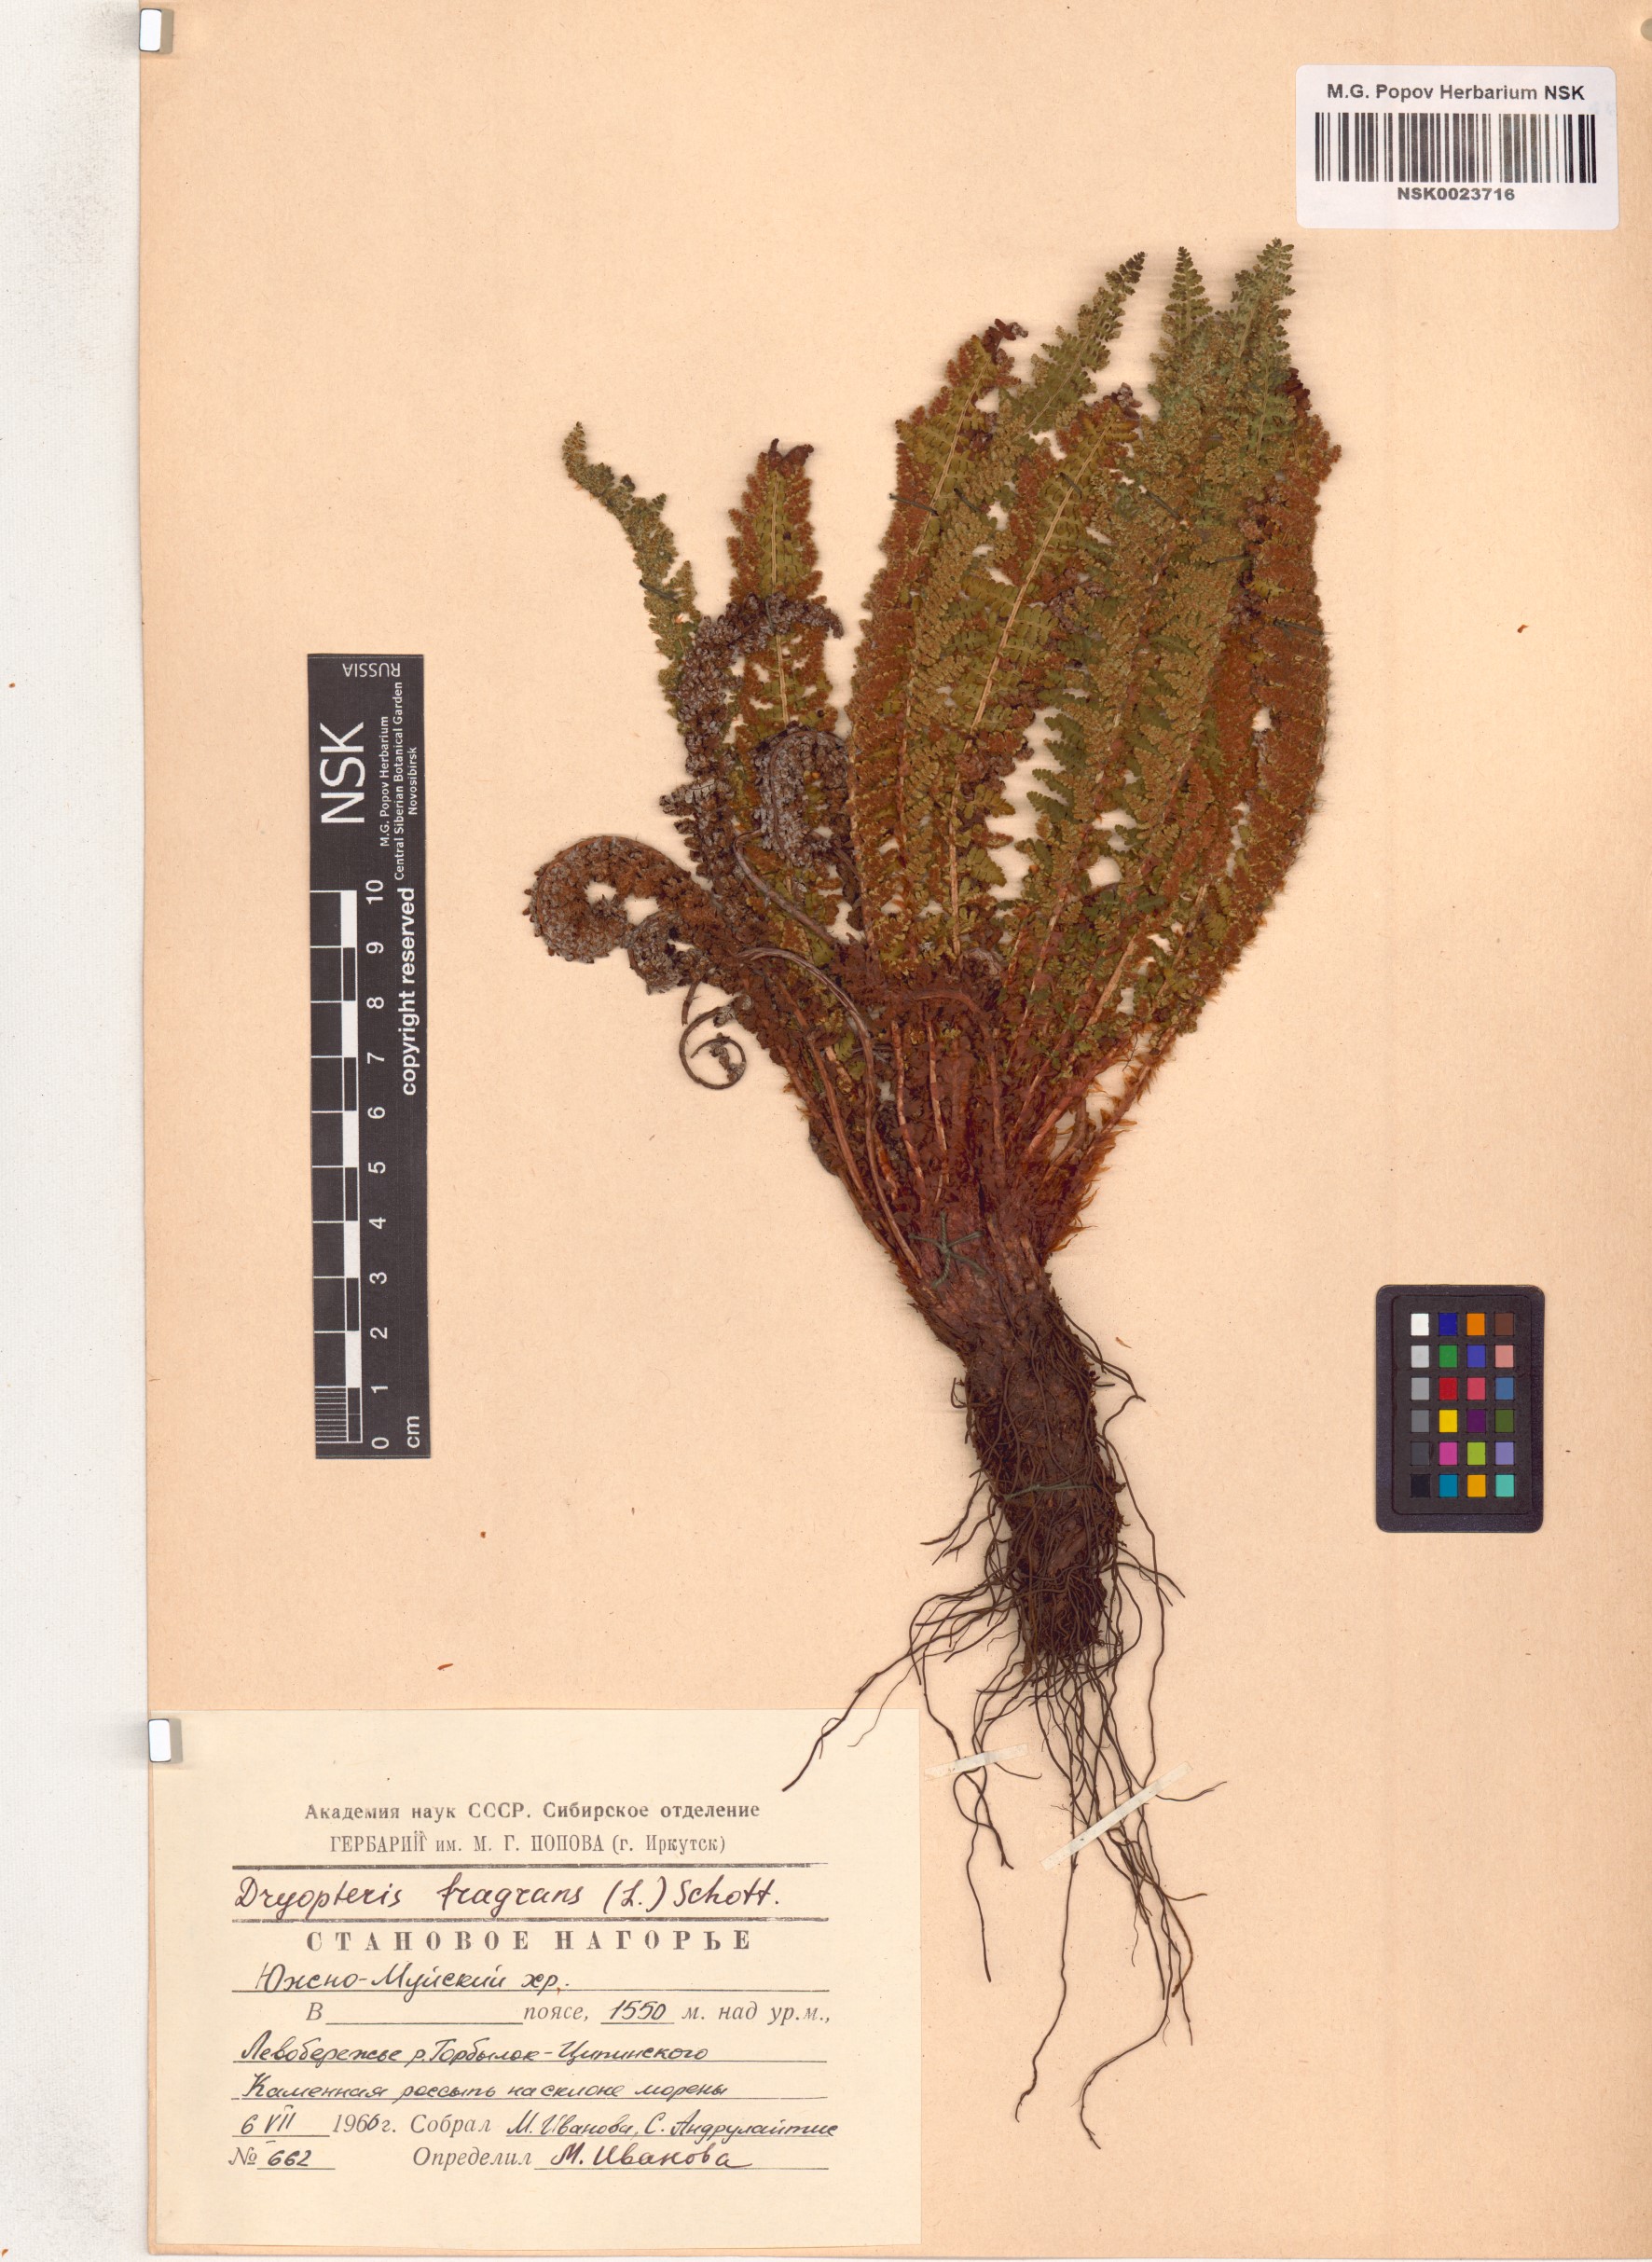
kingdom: Plantae
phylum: Tracheophyta
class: Polypodiopsida
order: Polypodiales
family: Dryopteridaceae
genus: Dryopteris
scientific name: Dryopteris fragrans
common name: Fragrant wood fern
